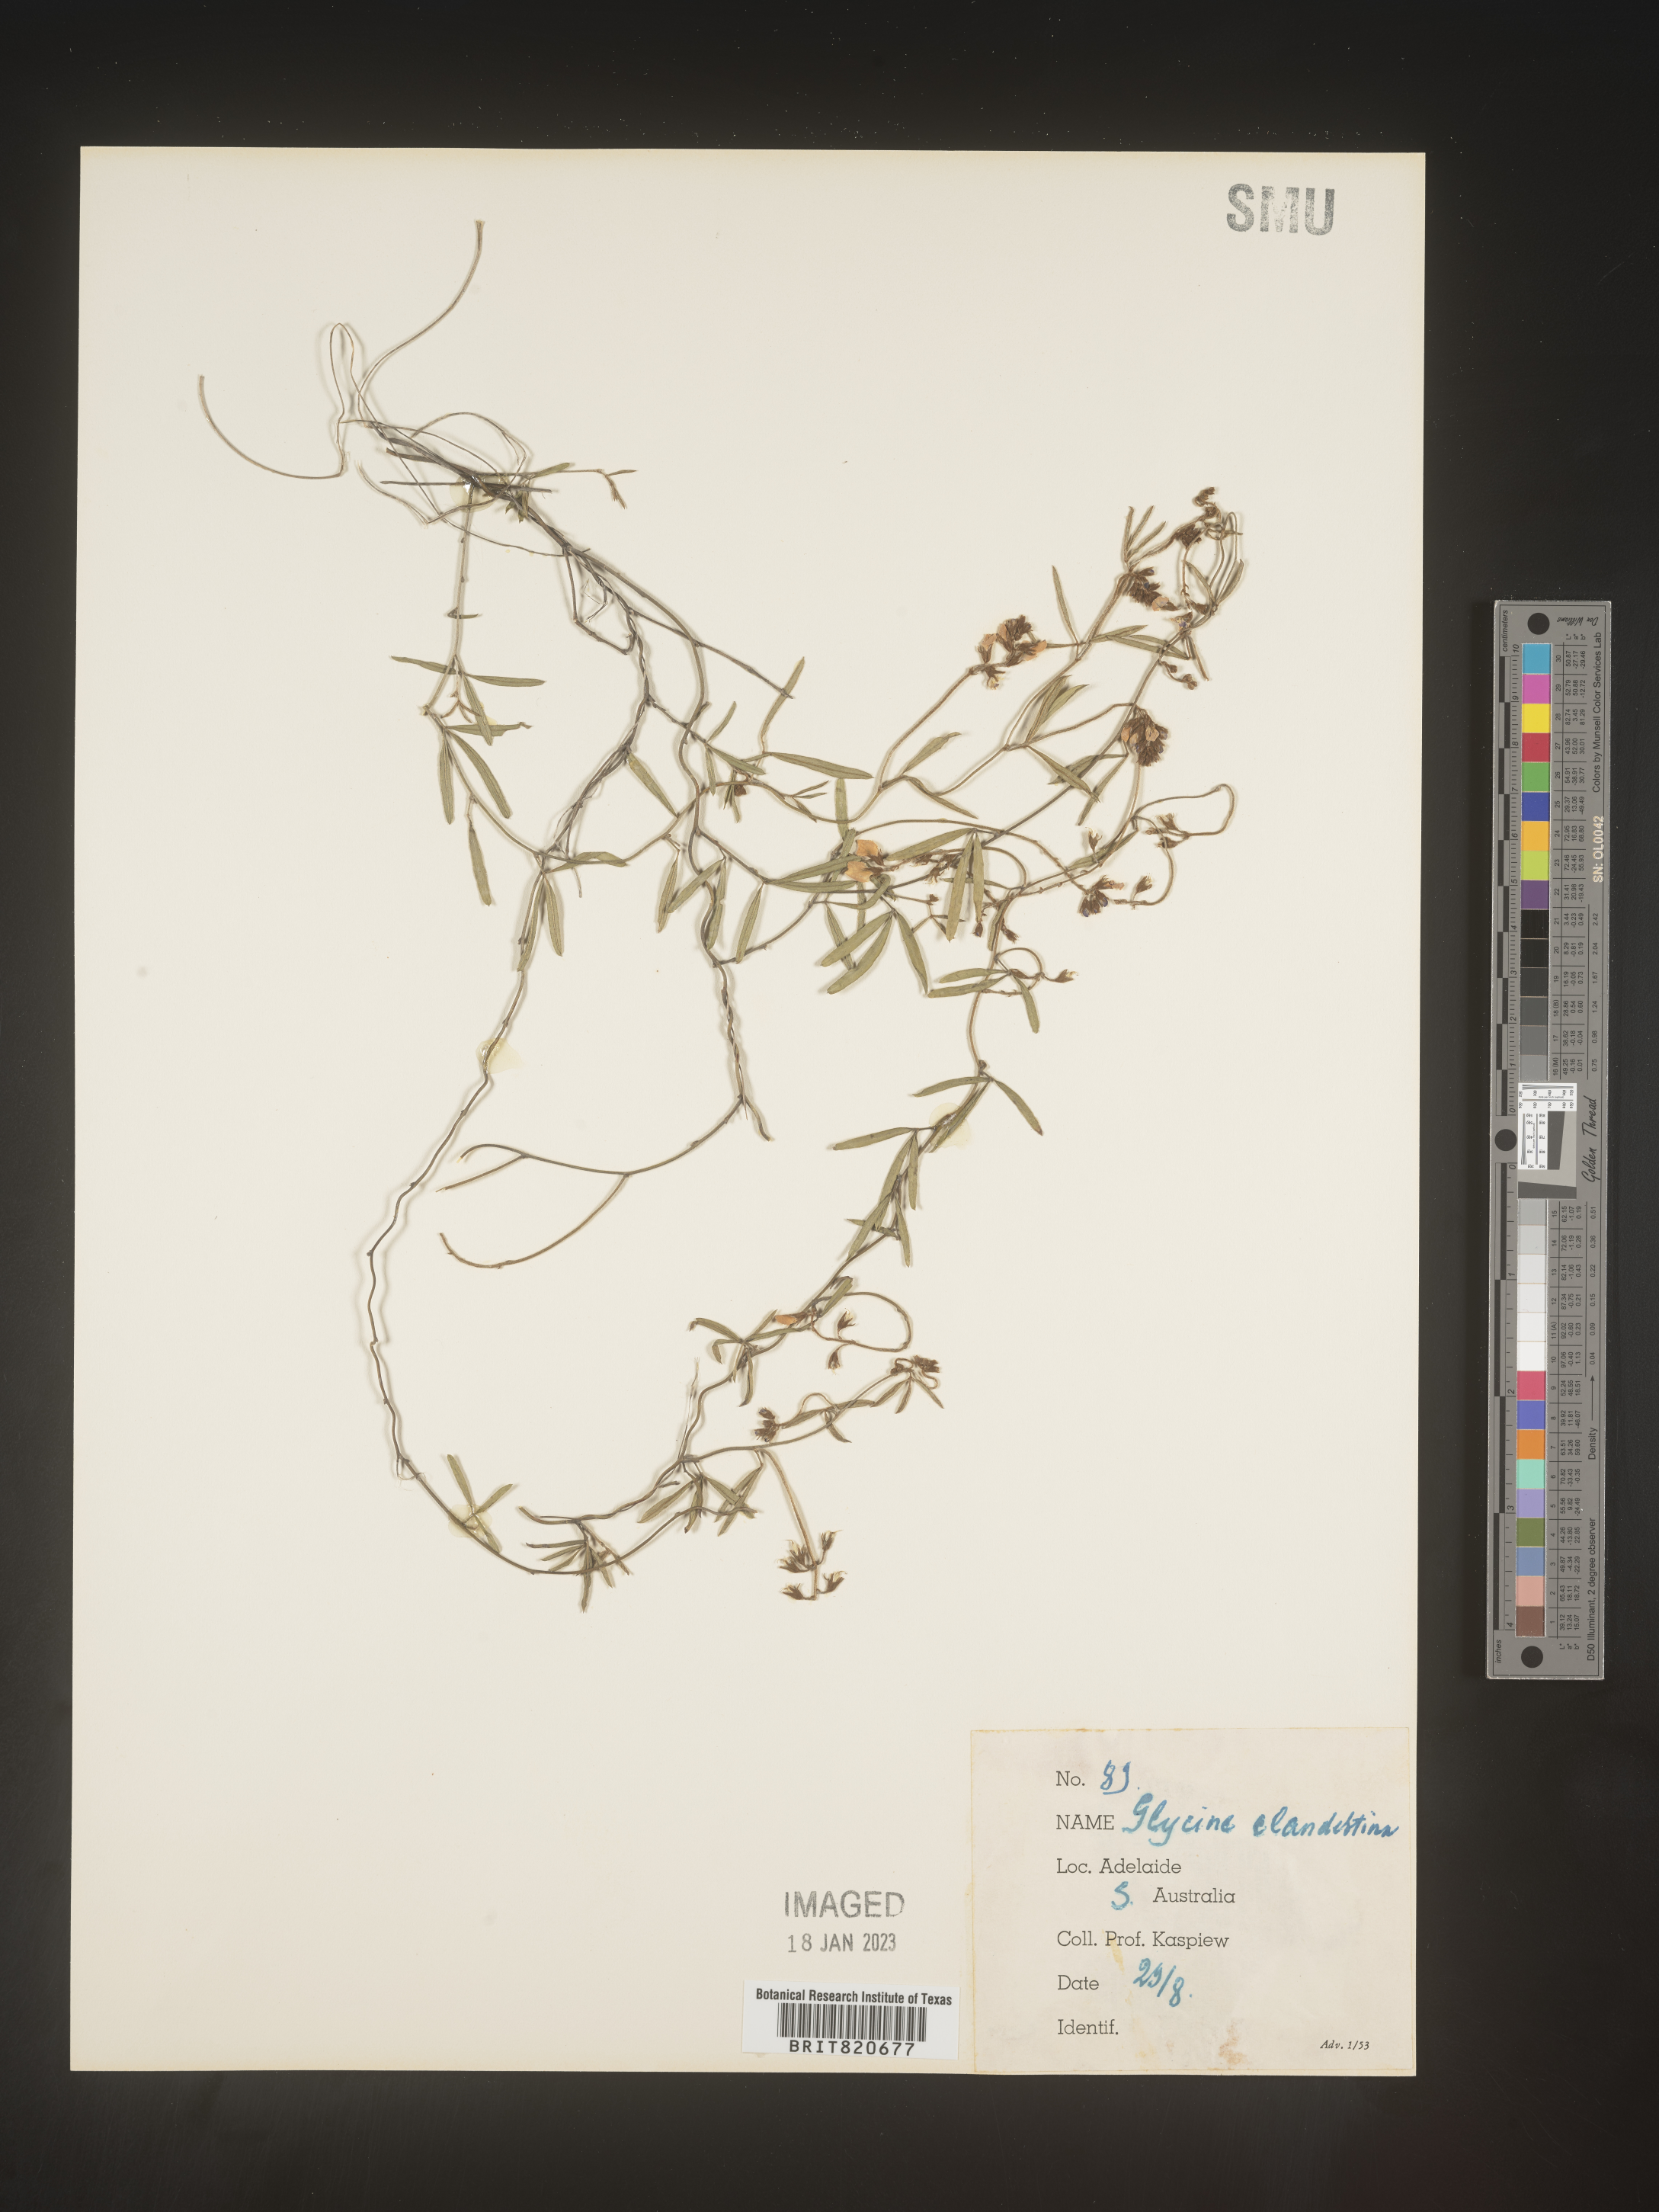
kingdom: Plantae
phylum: Tracheophyta
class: Magnoliopsida
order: Fabales
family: Fabaceae
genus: Glycine
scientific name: Glycine
